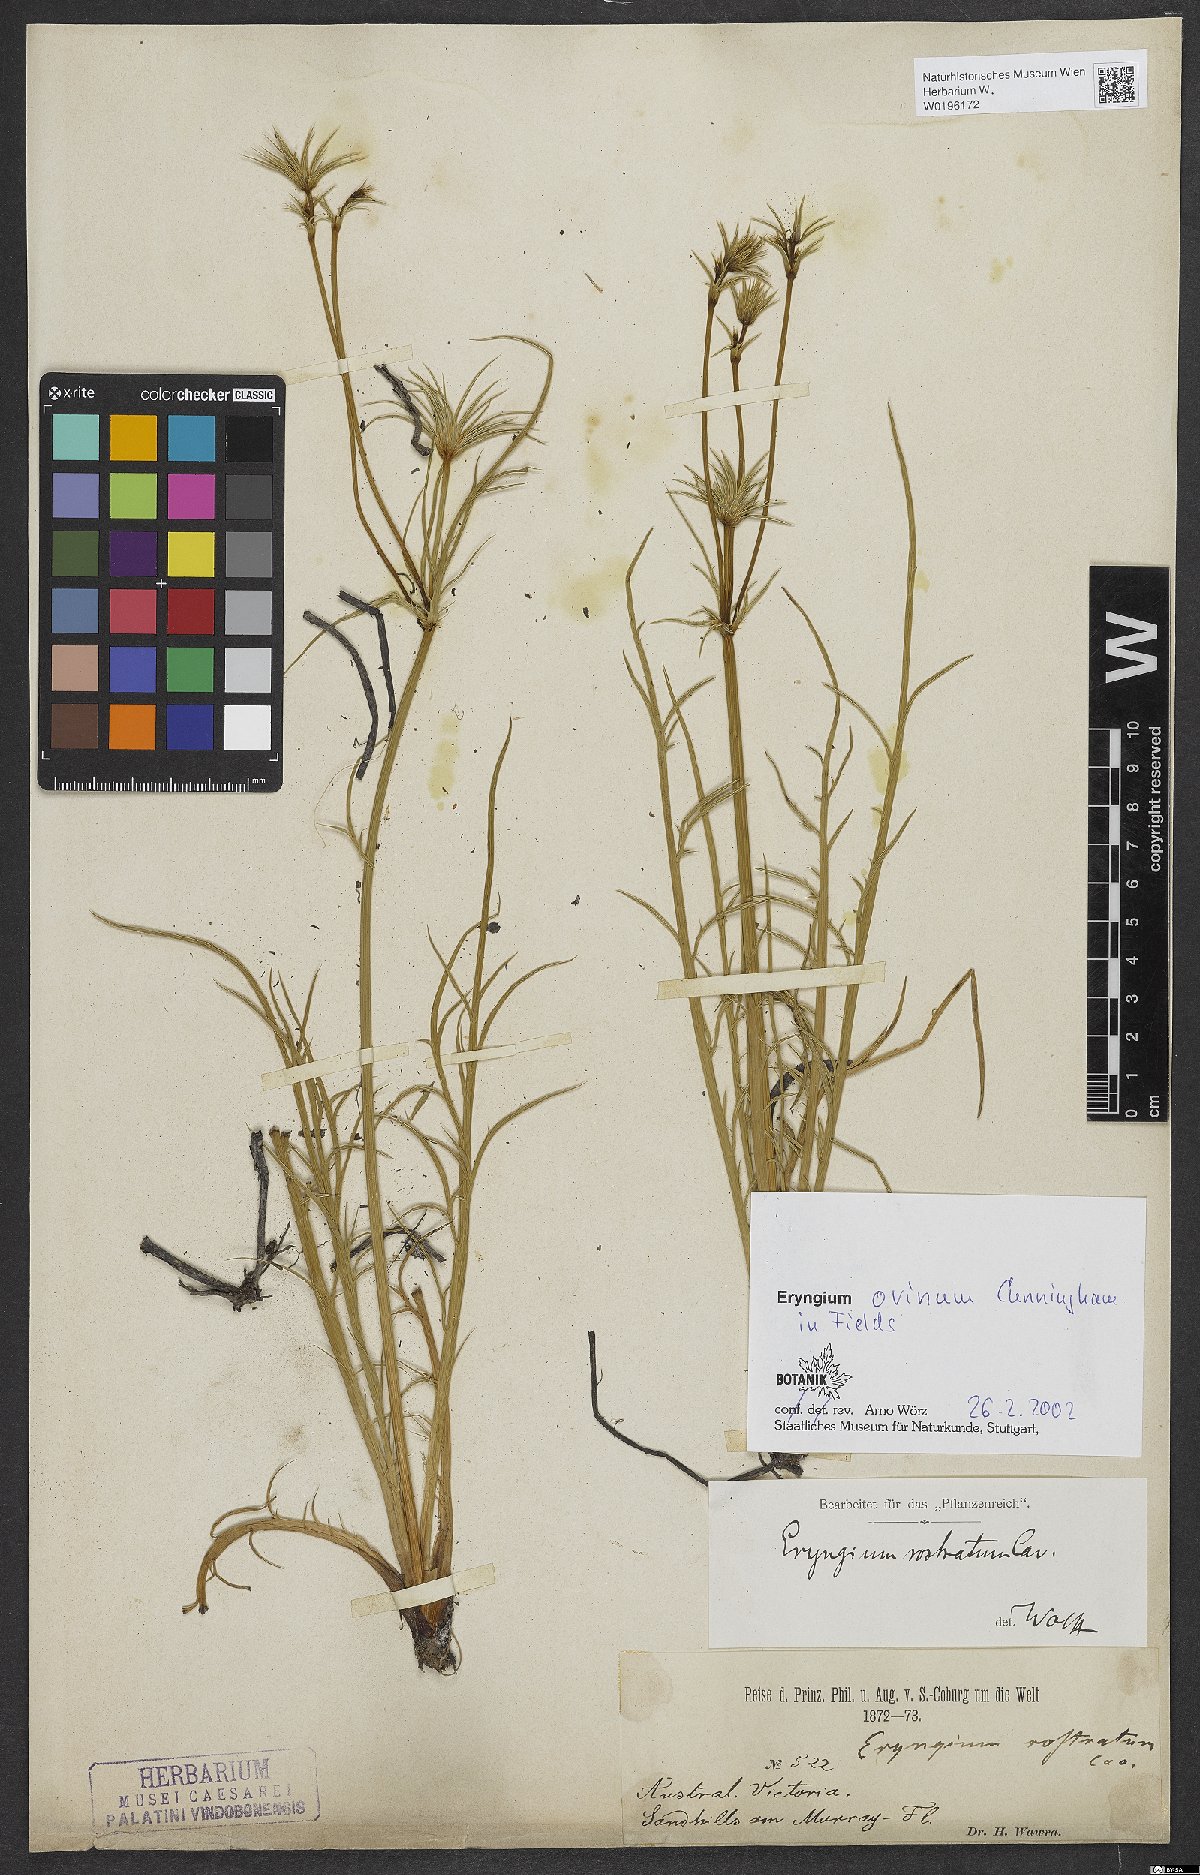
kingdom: Plantae
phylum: Tracheophyta
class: Magnoliopsida
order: Apiales
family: Apiaceae
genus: Eryngium
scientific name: Eryngium ovinum
